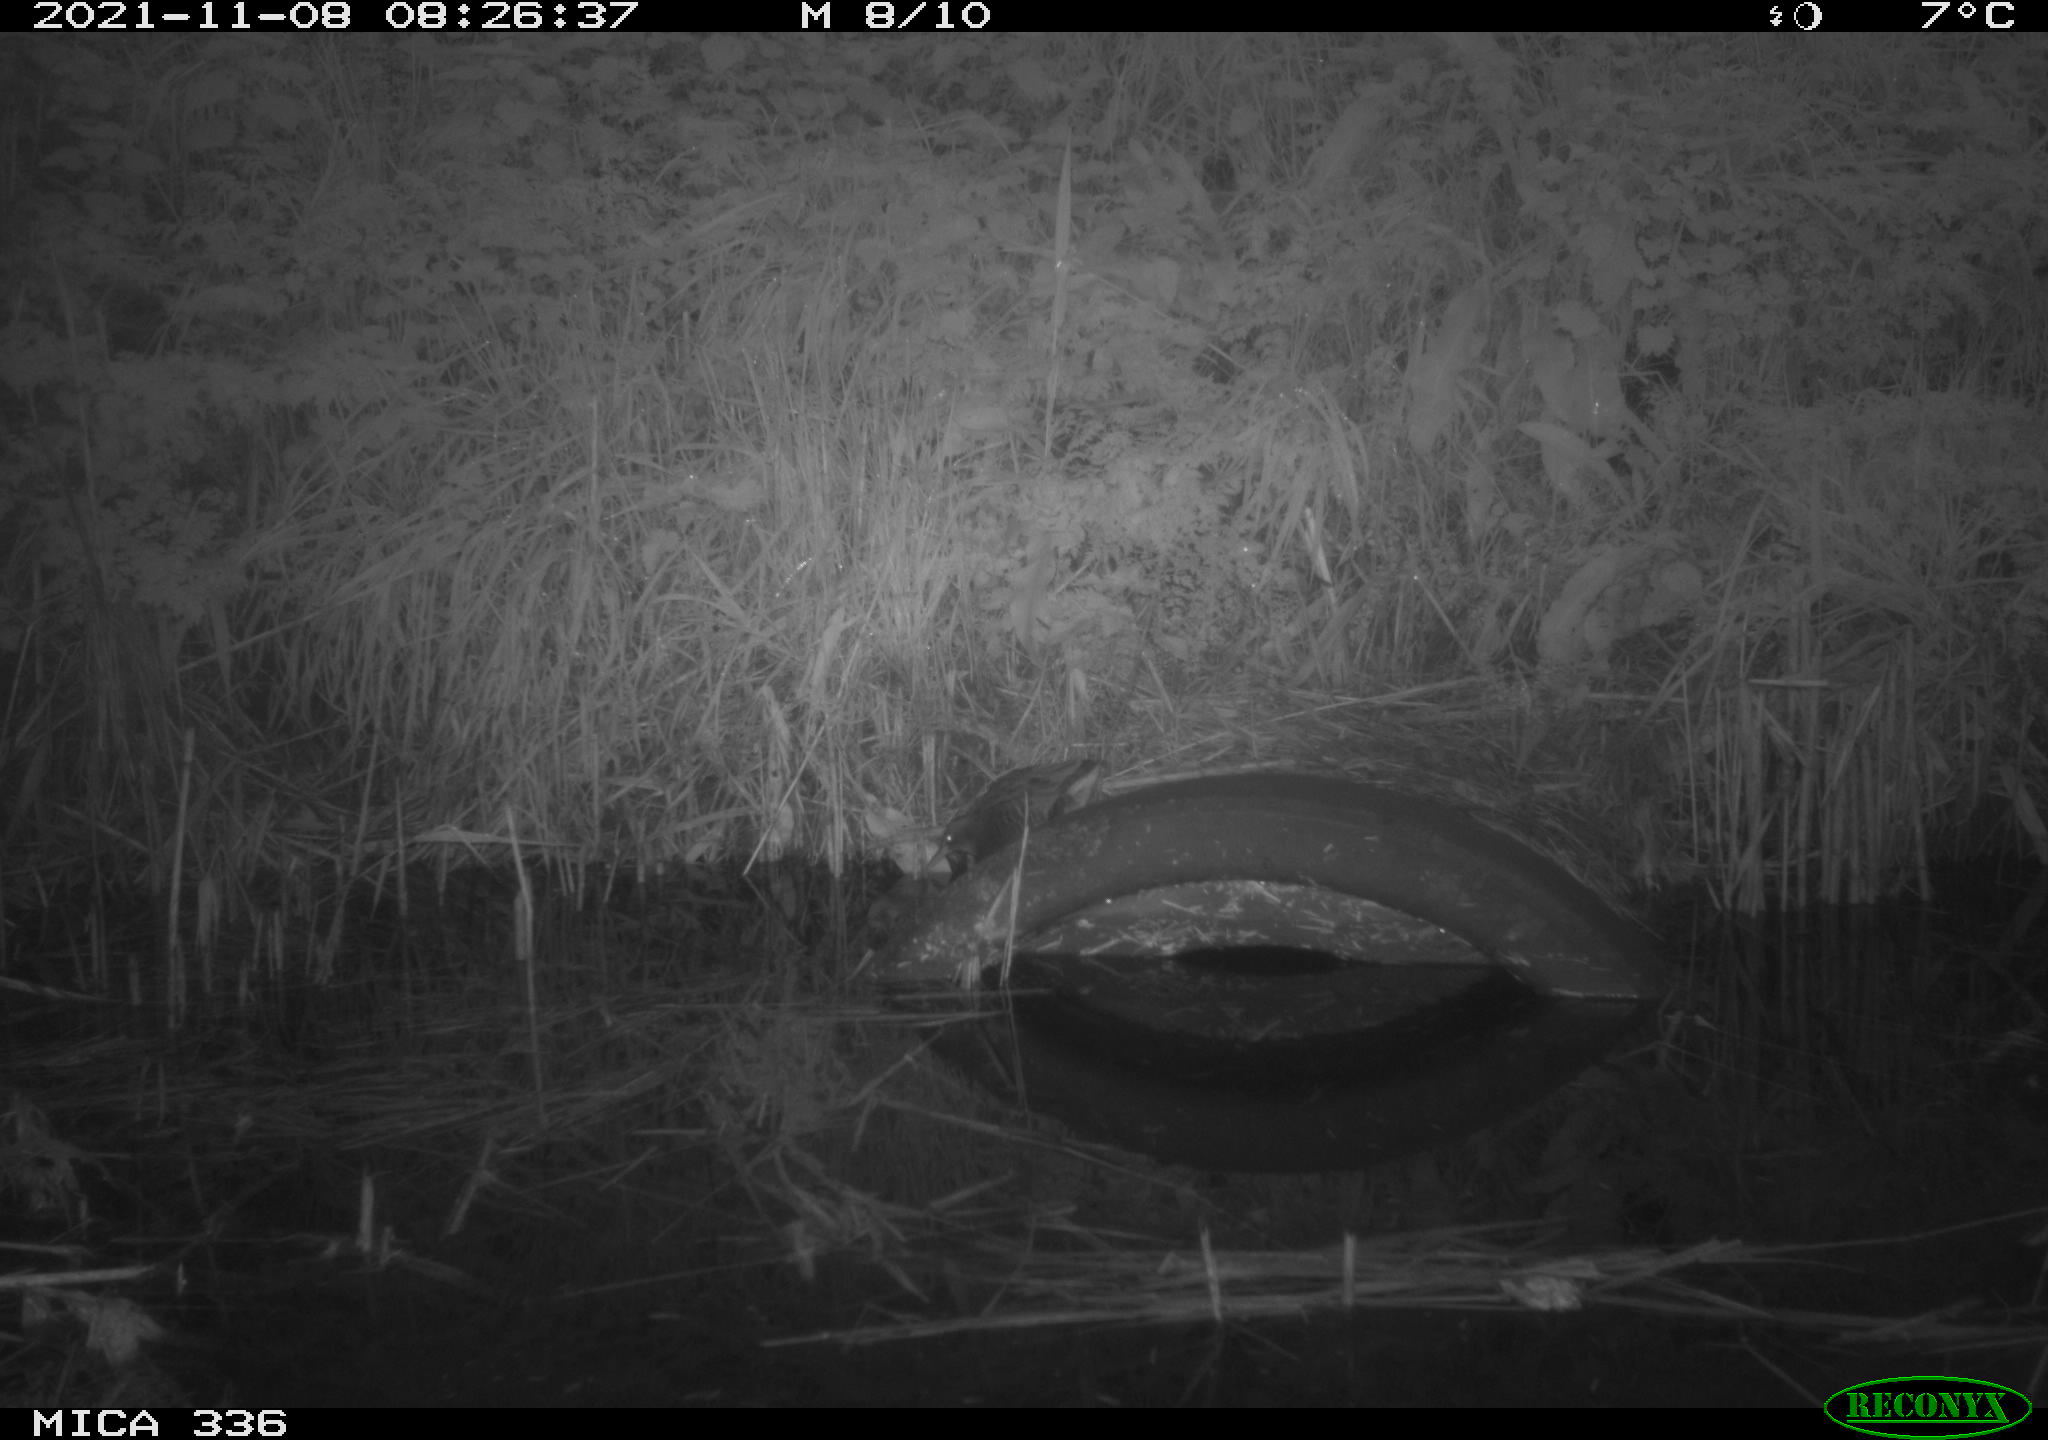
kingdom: Animalia
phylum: Chordata
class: Aves
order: Gruiformes
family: Rallidae
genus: Gallinula
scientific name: Gallinula chloropus
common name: Common moorhen
